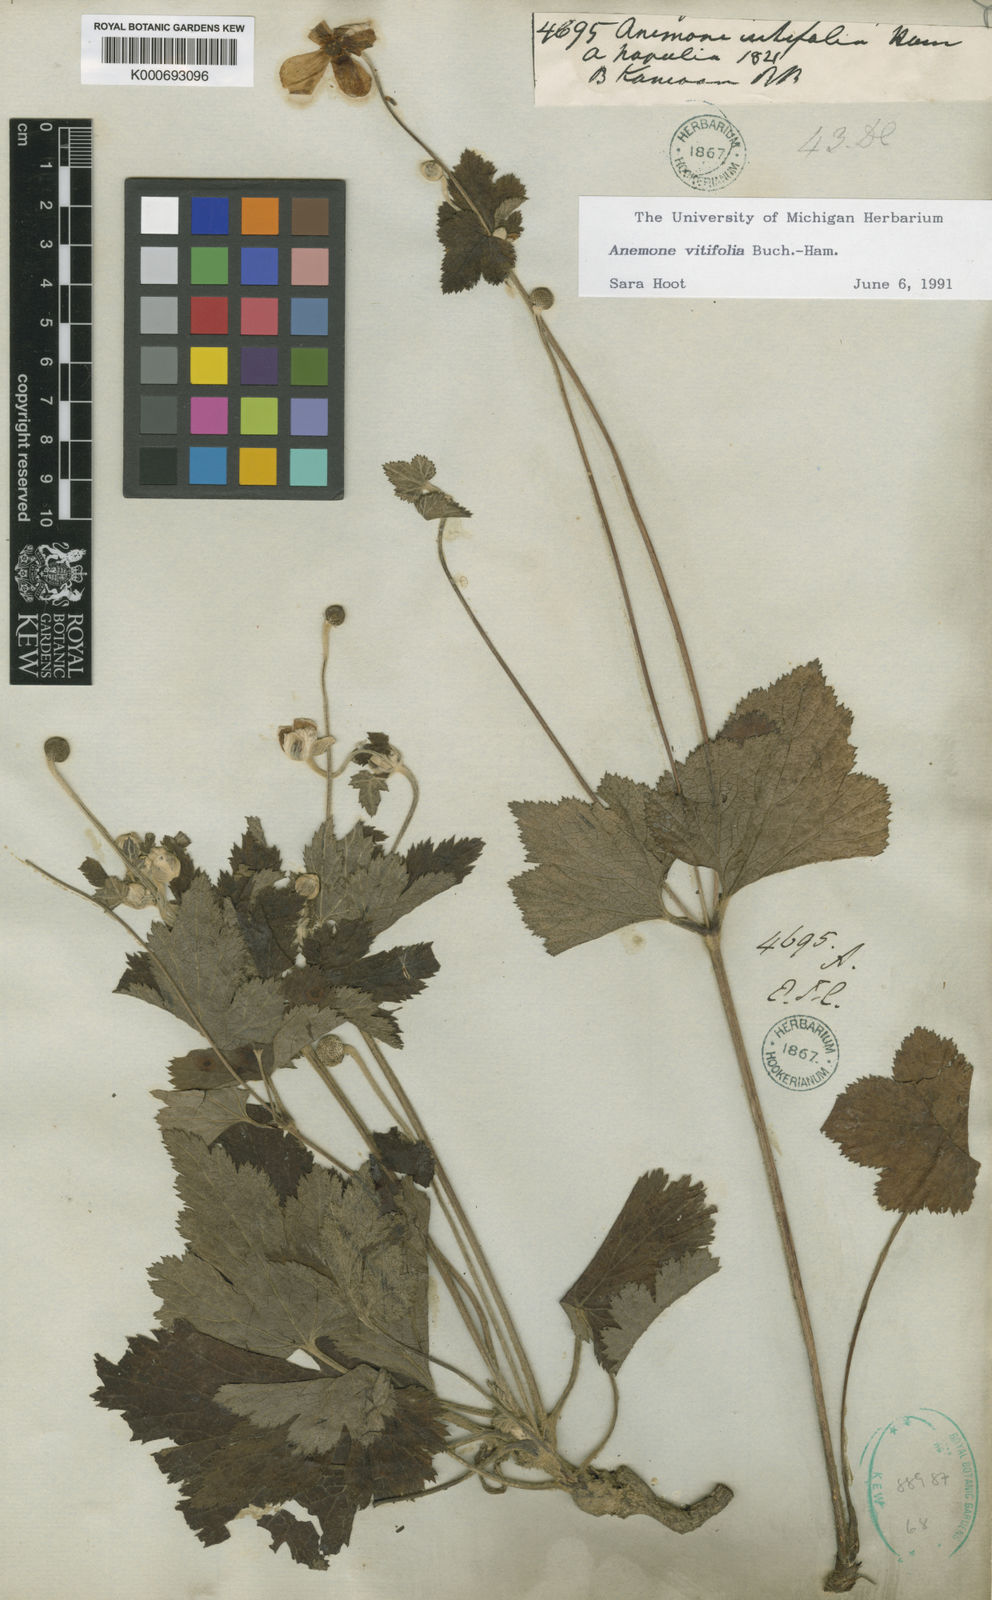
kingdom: Plantae
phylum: Tracheophyta
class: Magnoliopsida
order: Ranunculales
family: Ranunculaceae
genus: Eriocapitella
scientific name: Eriocapitella vitifolia
